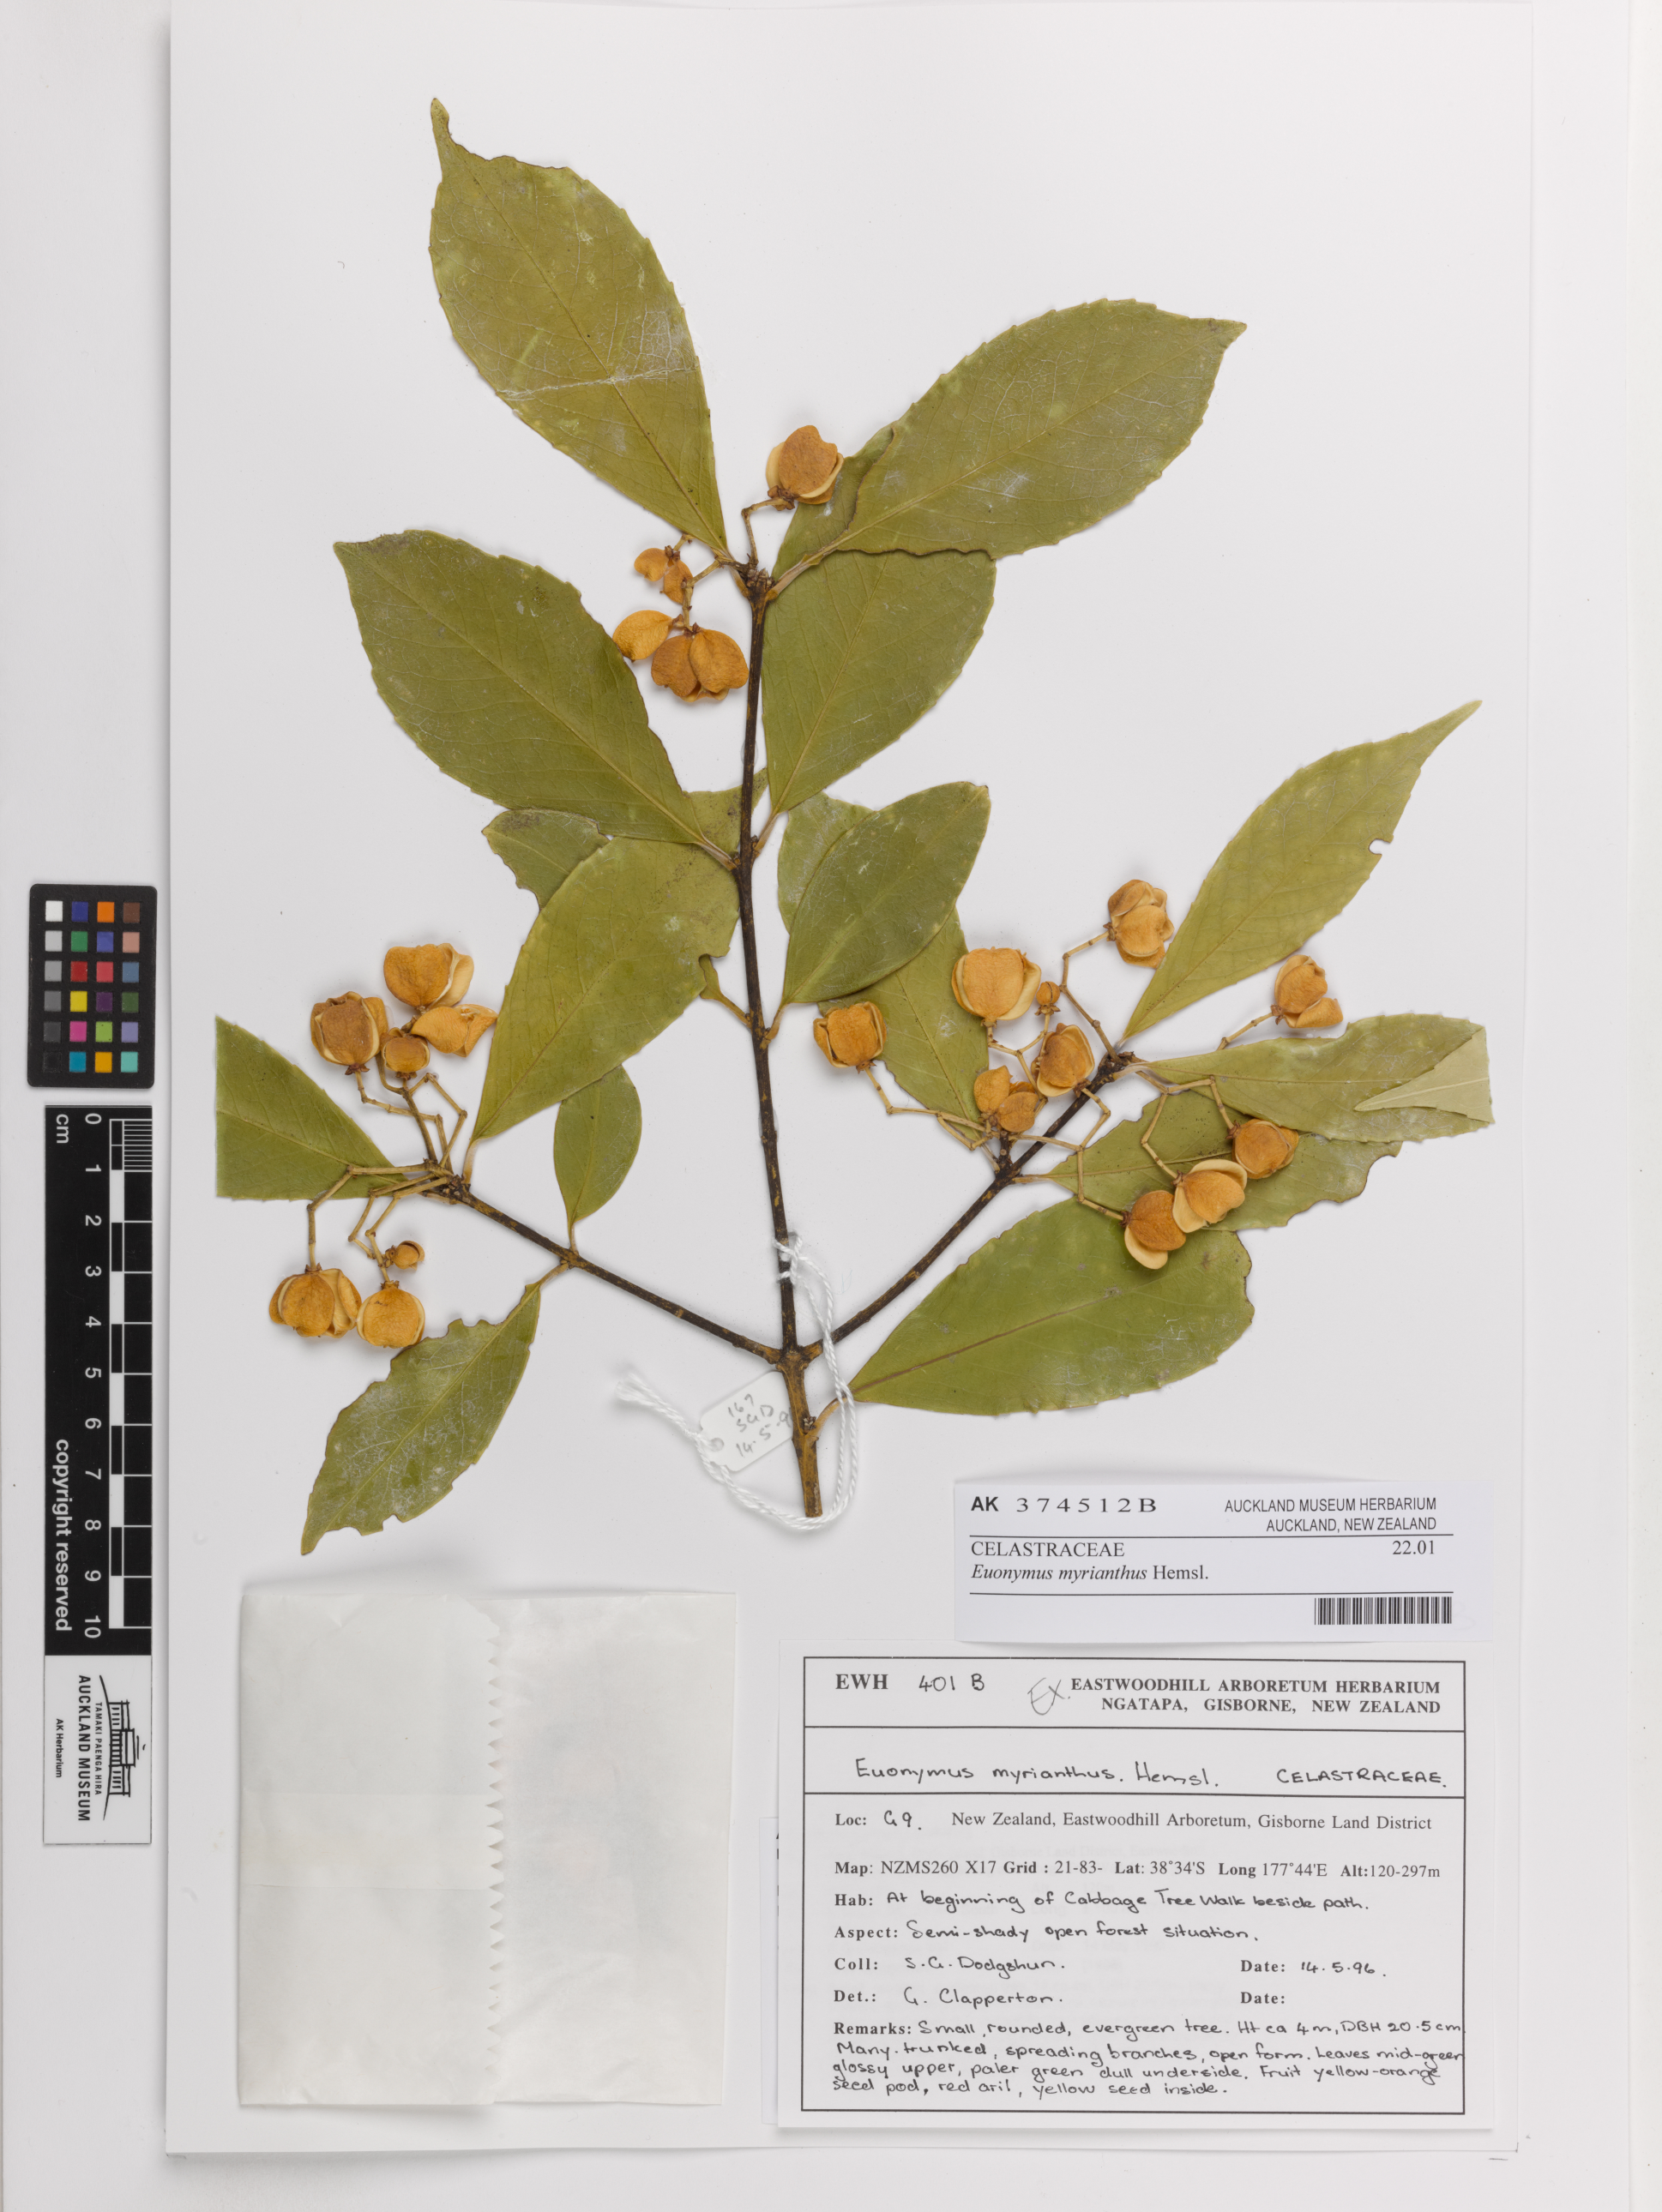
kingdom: Plantae
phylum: Tracheophyta
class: Magnoliopsida
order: Celastrales
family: Celastraceae
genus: Euonymus
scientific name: Euonymus myrianthus
